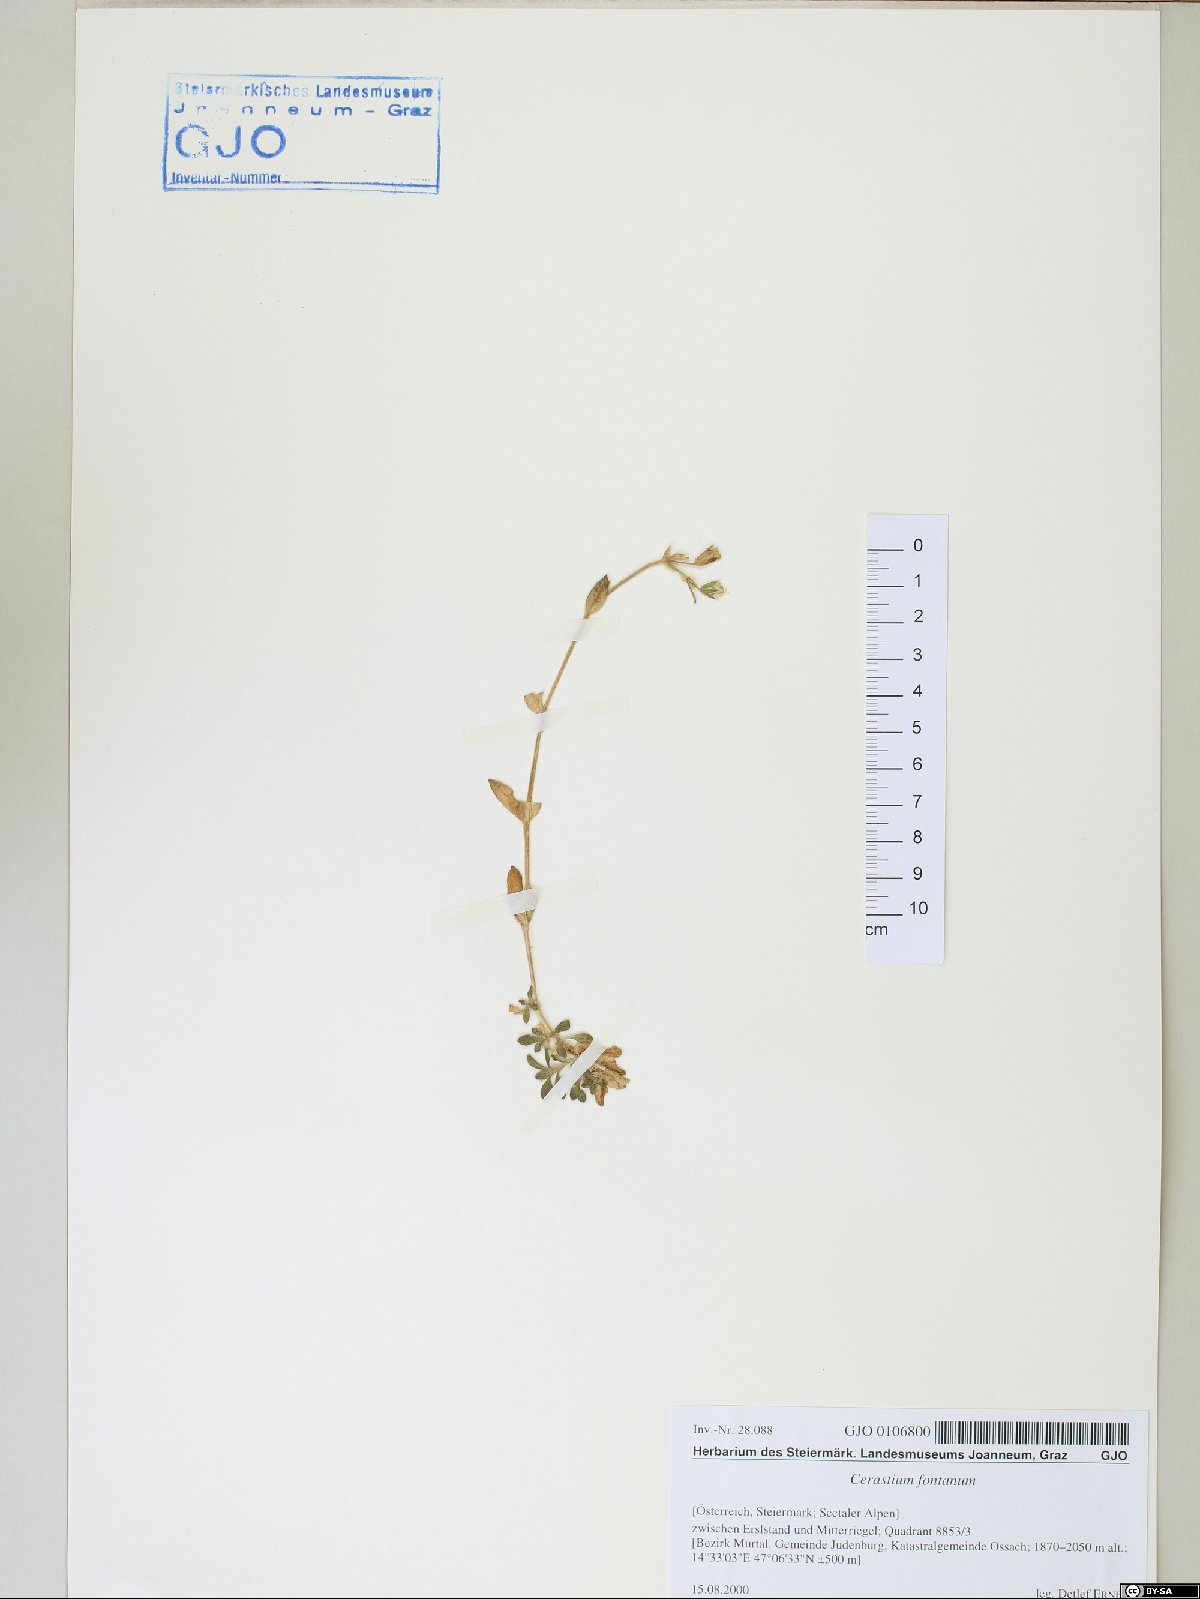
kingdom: Plantae
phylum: Tracheophyta
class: Magnoliopsida
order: Caryophyllales
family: Caryophyllaceae
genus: Cerastium
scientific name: Cerastium fontanum
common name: Common mouse-ear
